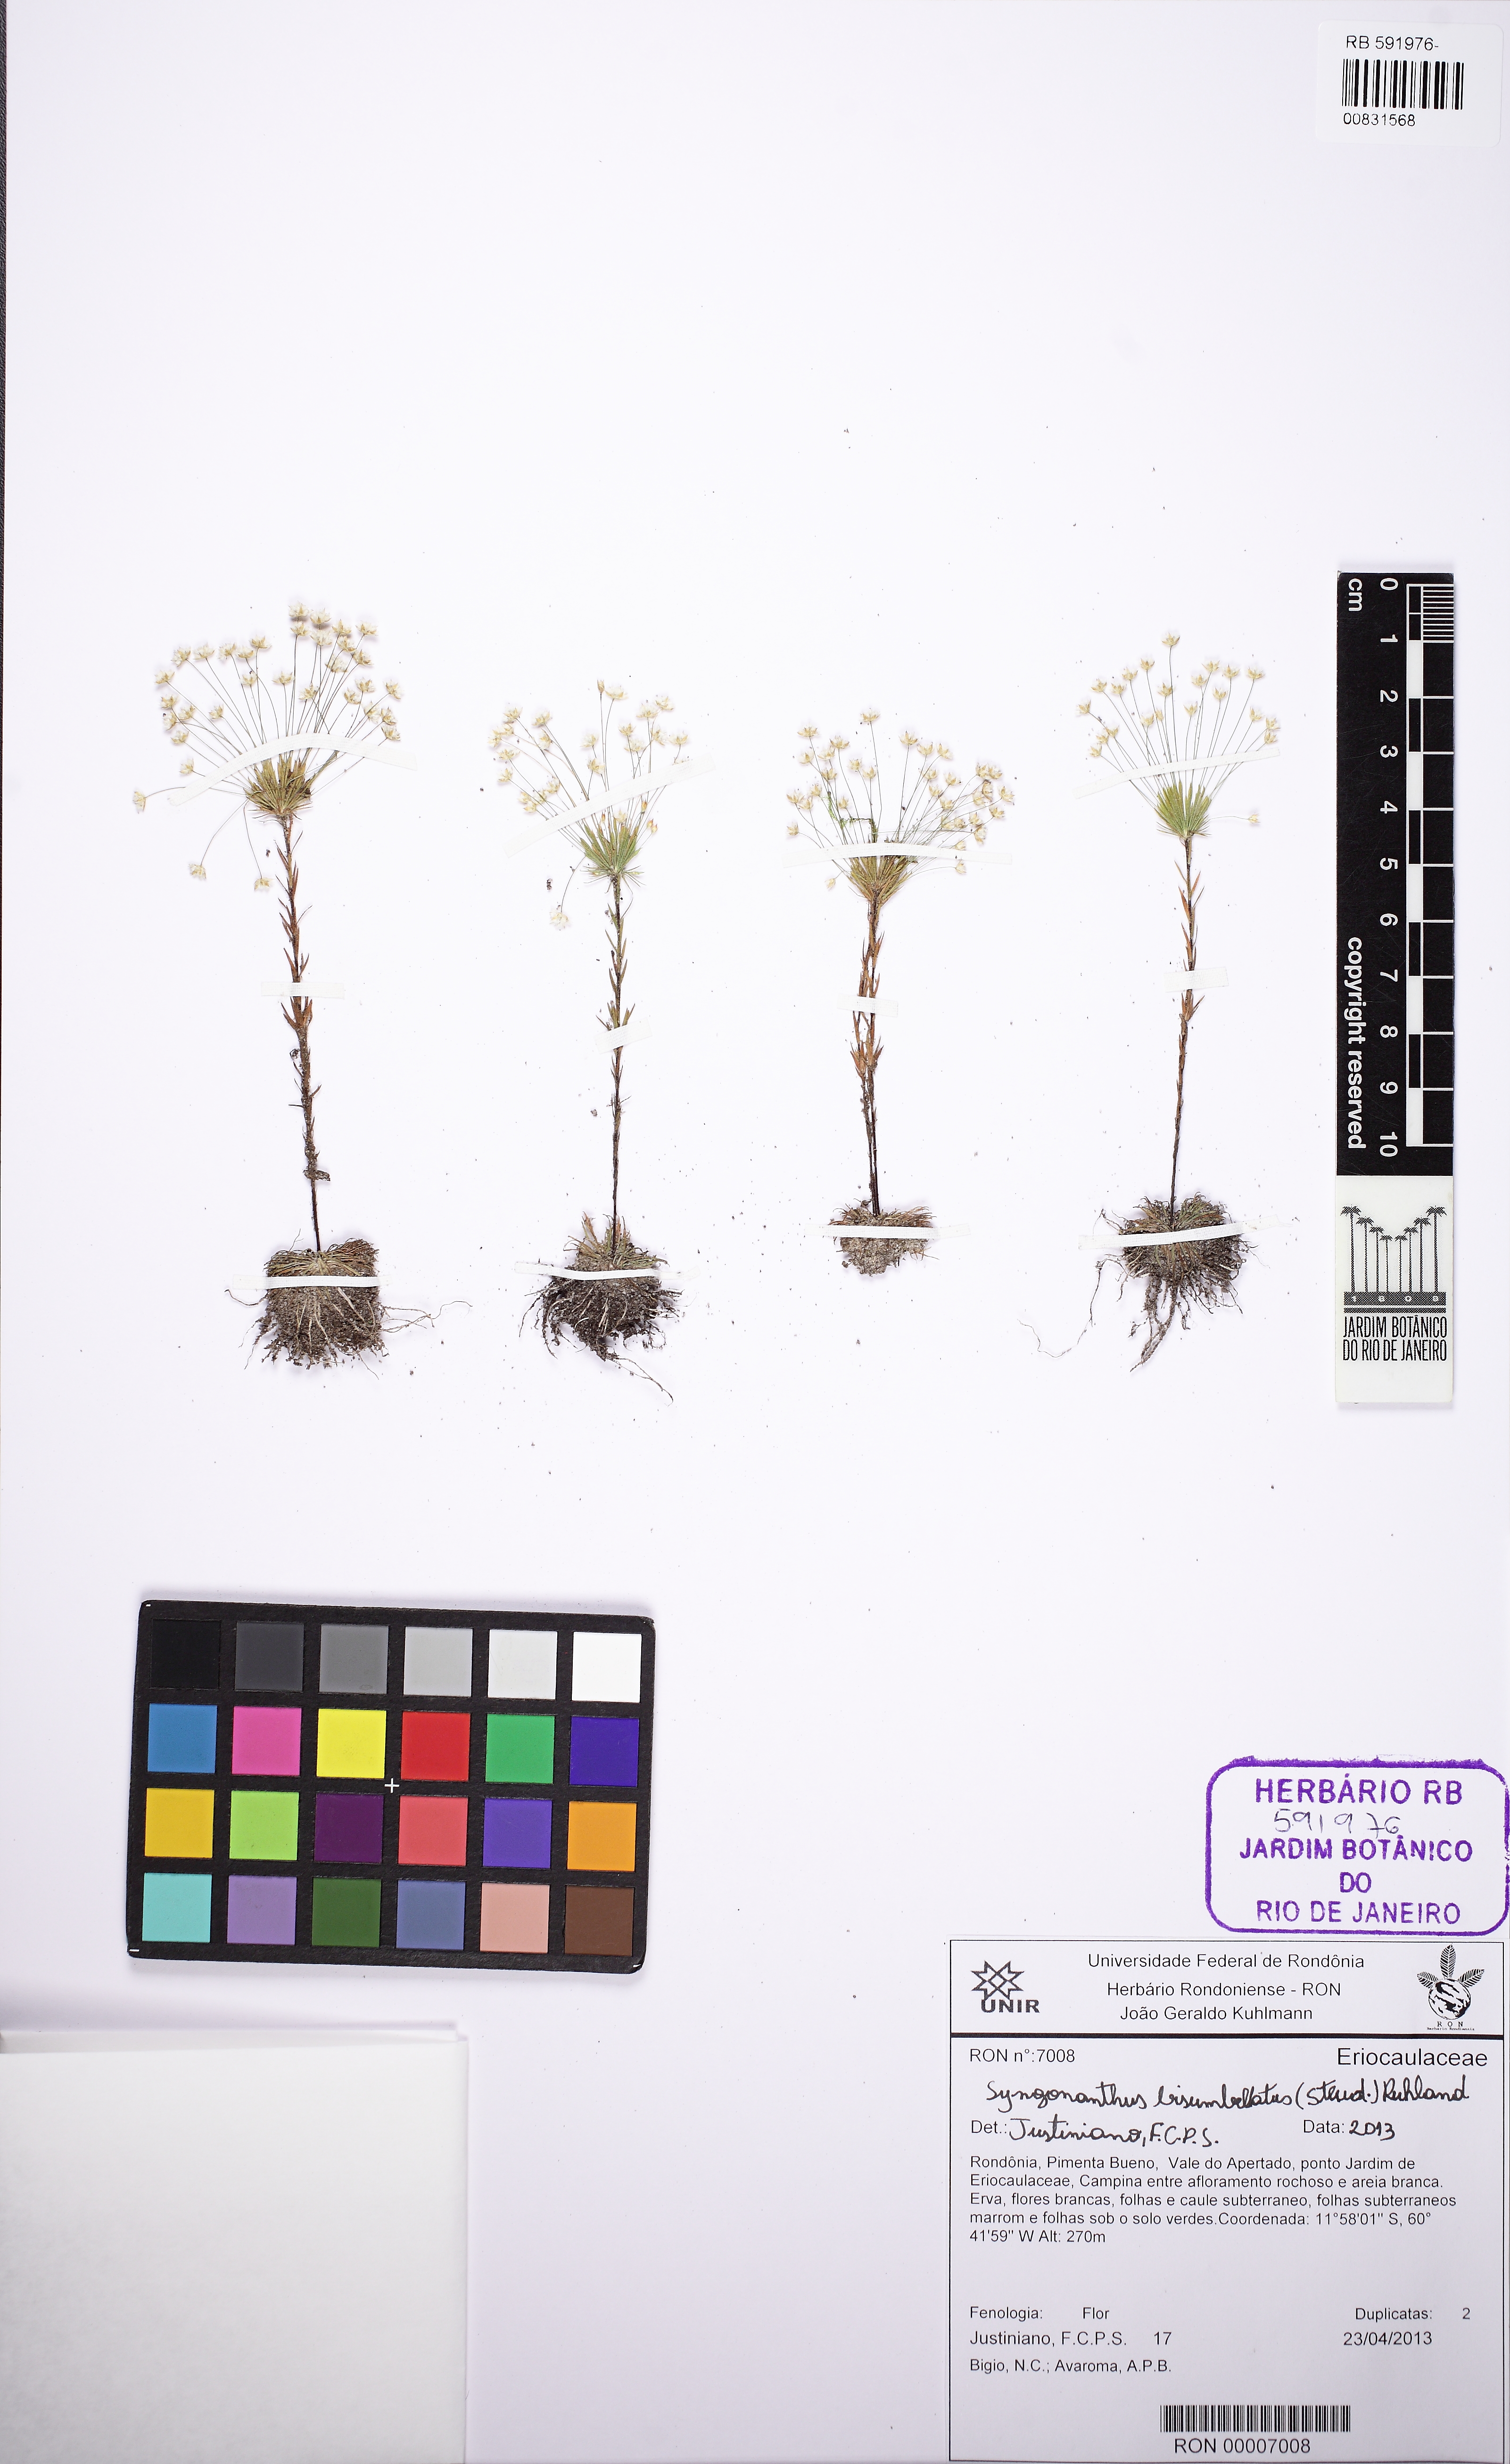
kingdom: Plantae
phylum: Tracheophyta
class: Liliopsida
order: Poales
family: Eriocaulaceae
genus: Syngonanthus
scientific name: Syngonanthus bisumbellatus
